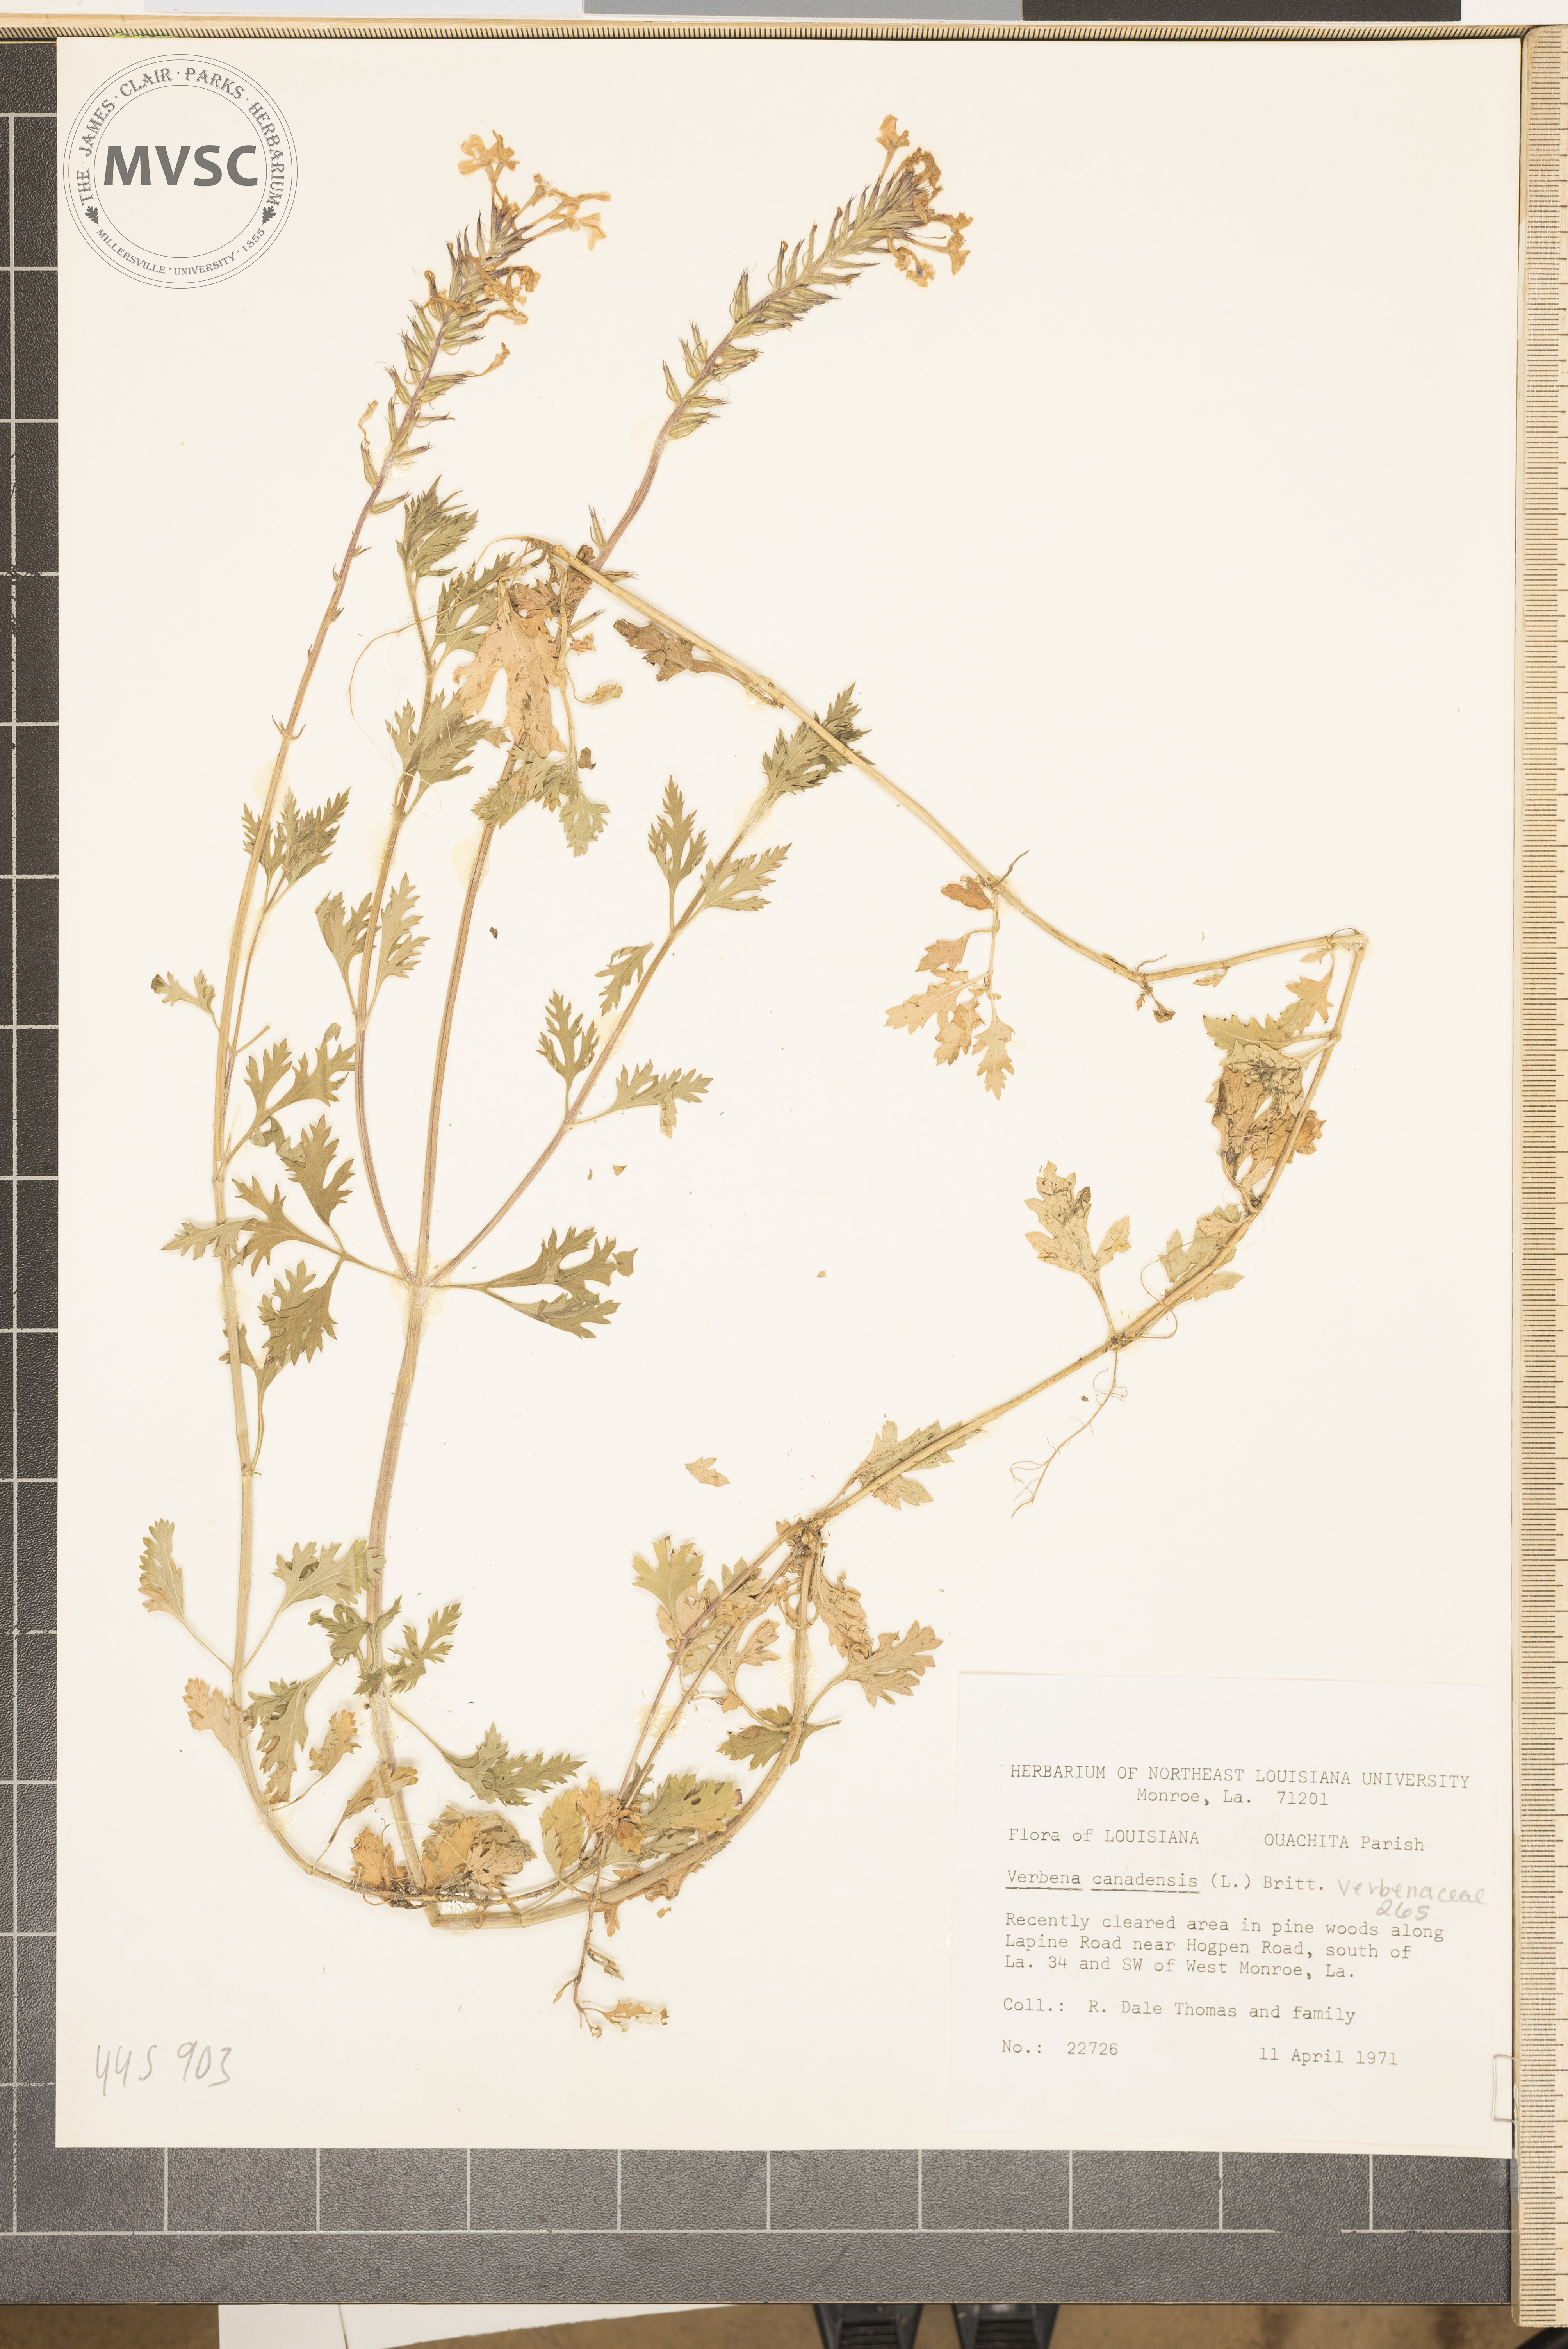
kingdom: Plantae
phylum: Tracheophyta
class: Magnoliopsida
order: Lamiales
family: Verbenaceae
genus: Verbena
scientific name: Verbena canadensis
